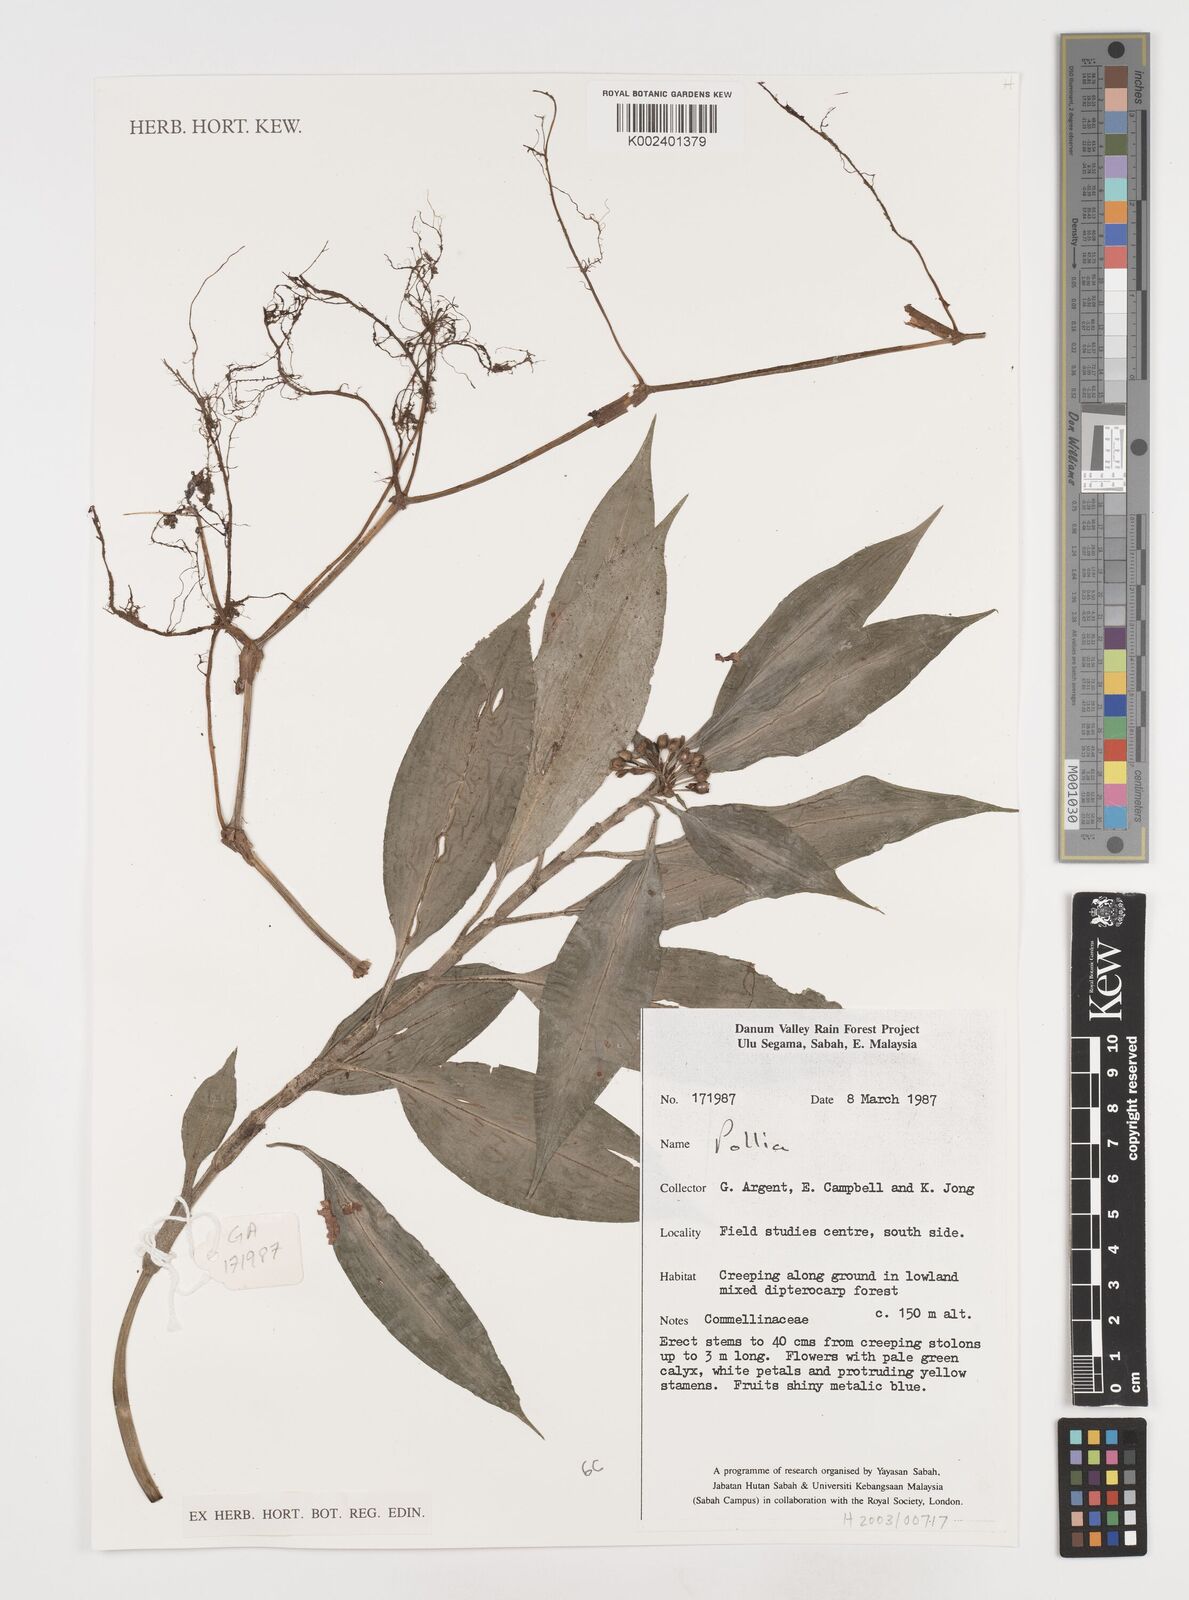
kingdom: Plantae
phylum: Tracheophyta
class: Liliopsida
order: Commelinales
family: Commelinaceae
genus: Pollia
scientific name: Pollia
